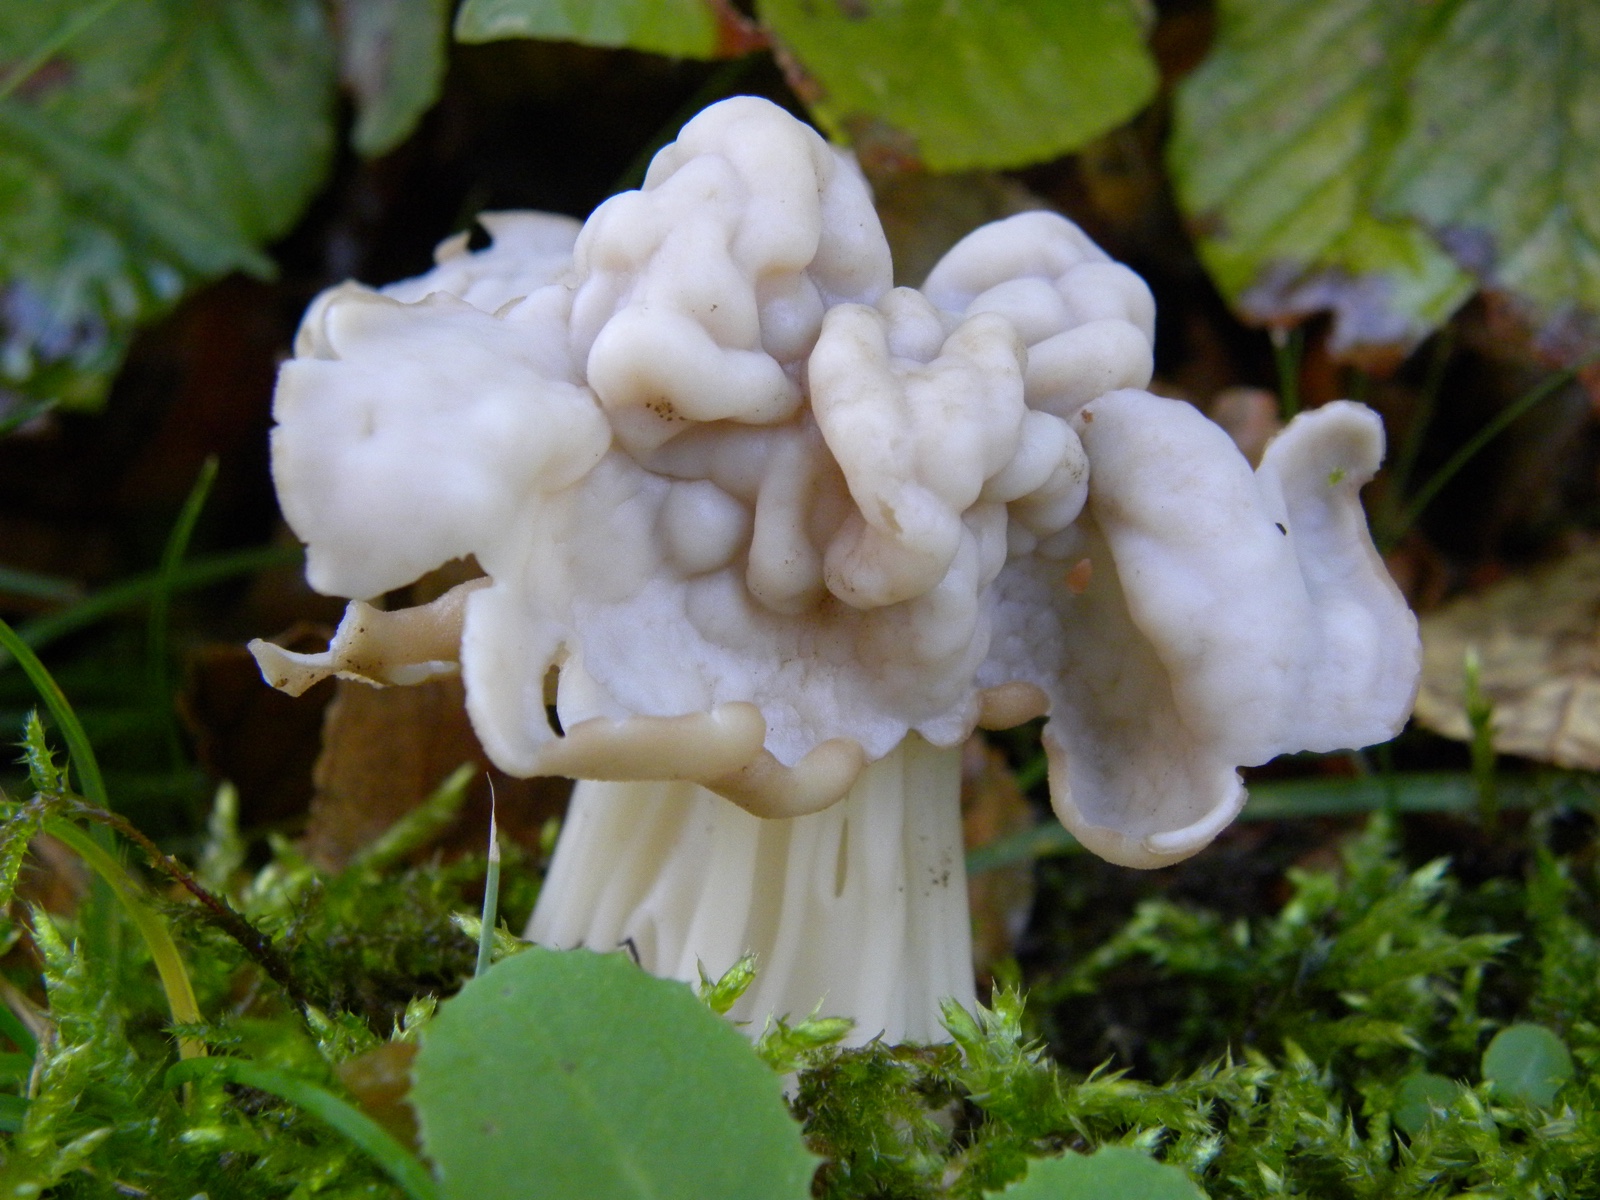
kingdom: Fungi
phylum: Ascomycota
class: Pezizomycetes
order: Pezizales
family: Helvellaceae
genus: Helvella
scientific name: Helvella crispa
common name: kruset foldhat
